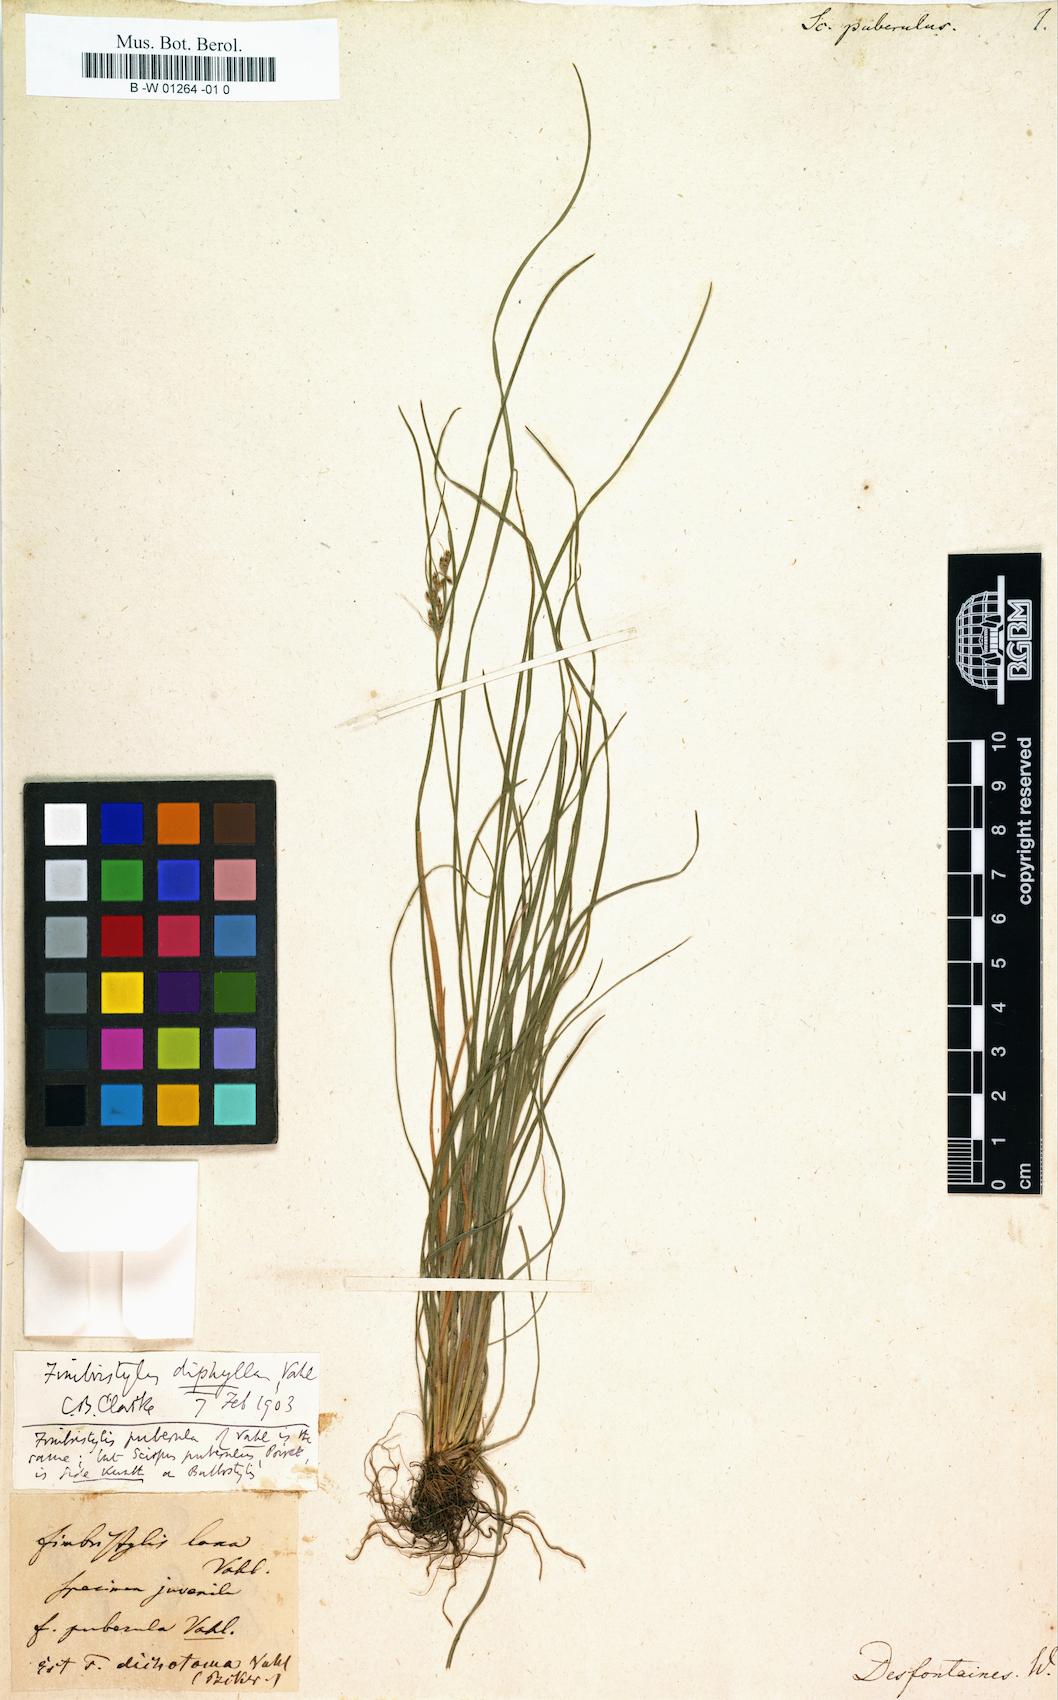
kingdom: Plantae
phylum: Tracheophyta
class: Liliopsida
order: Poales
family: Cyperaceae
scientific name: Cyperaceae
